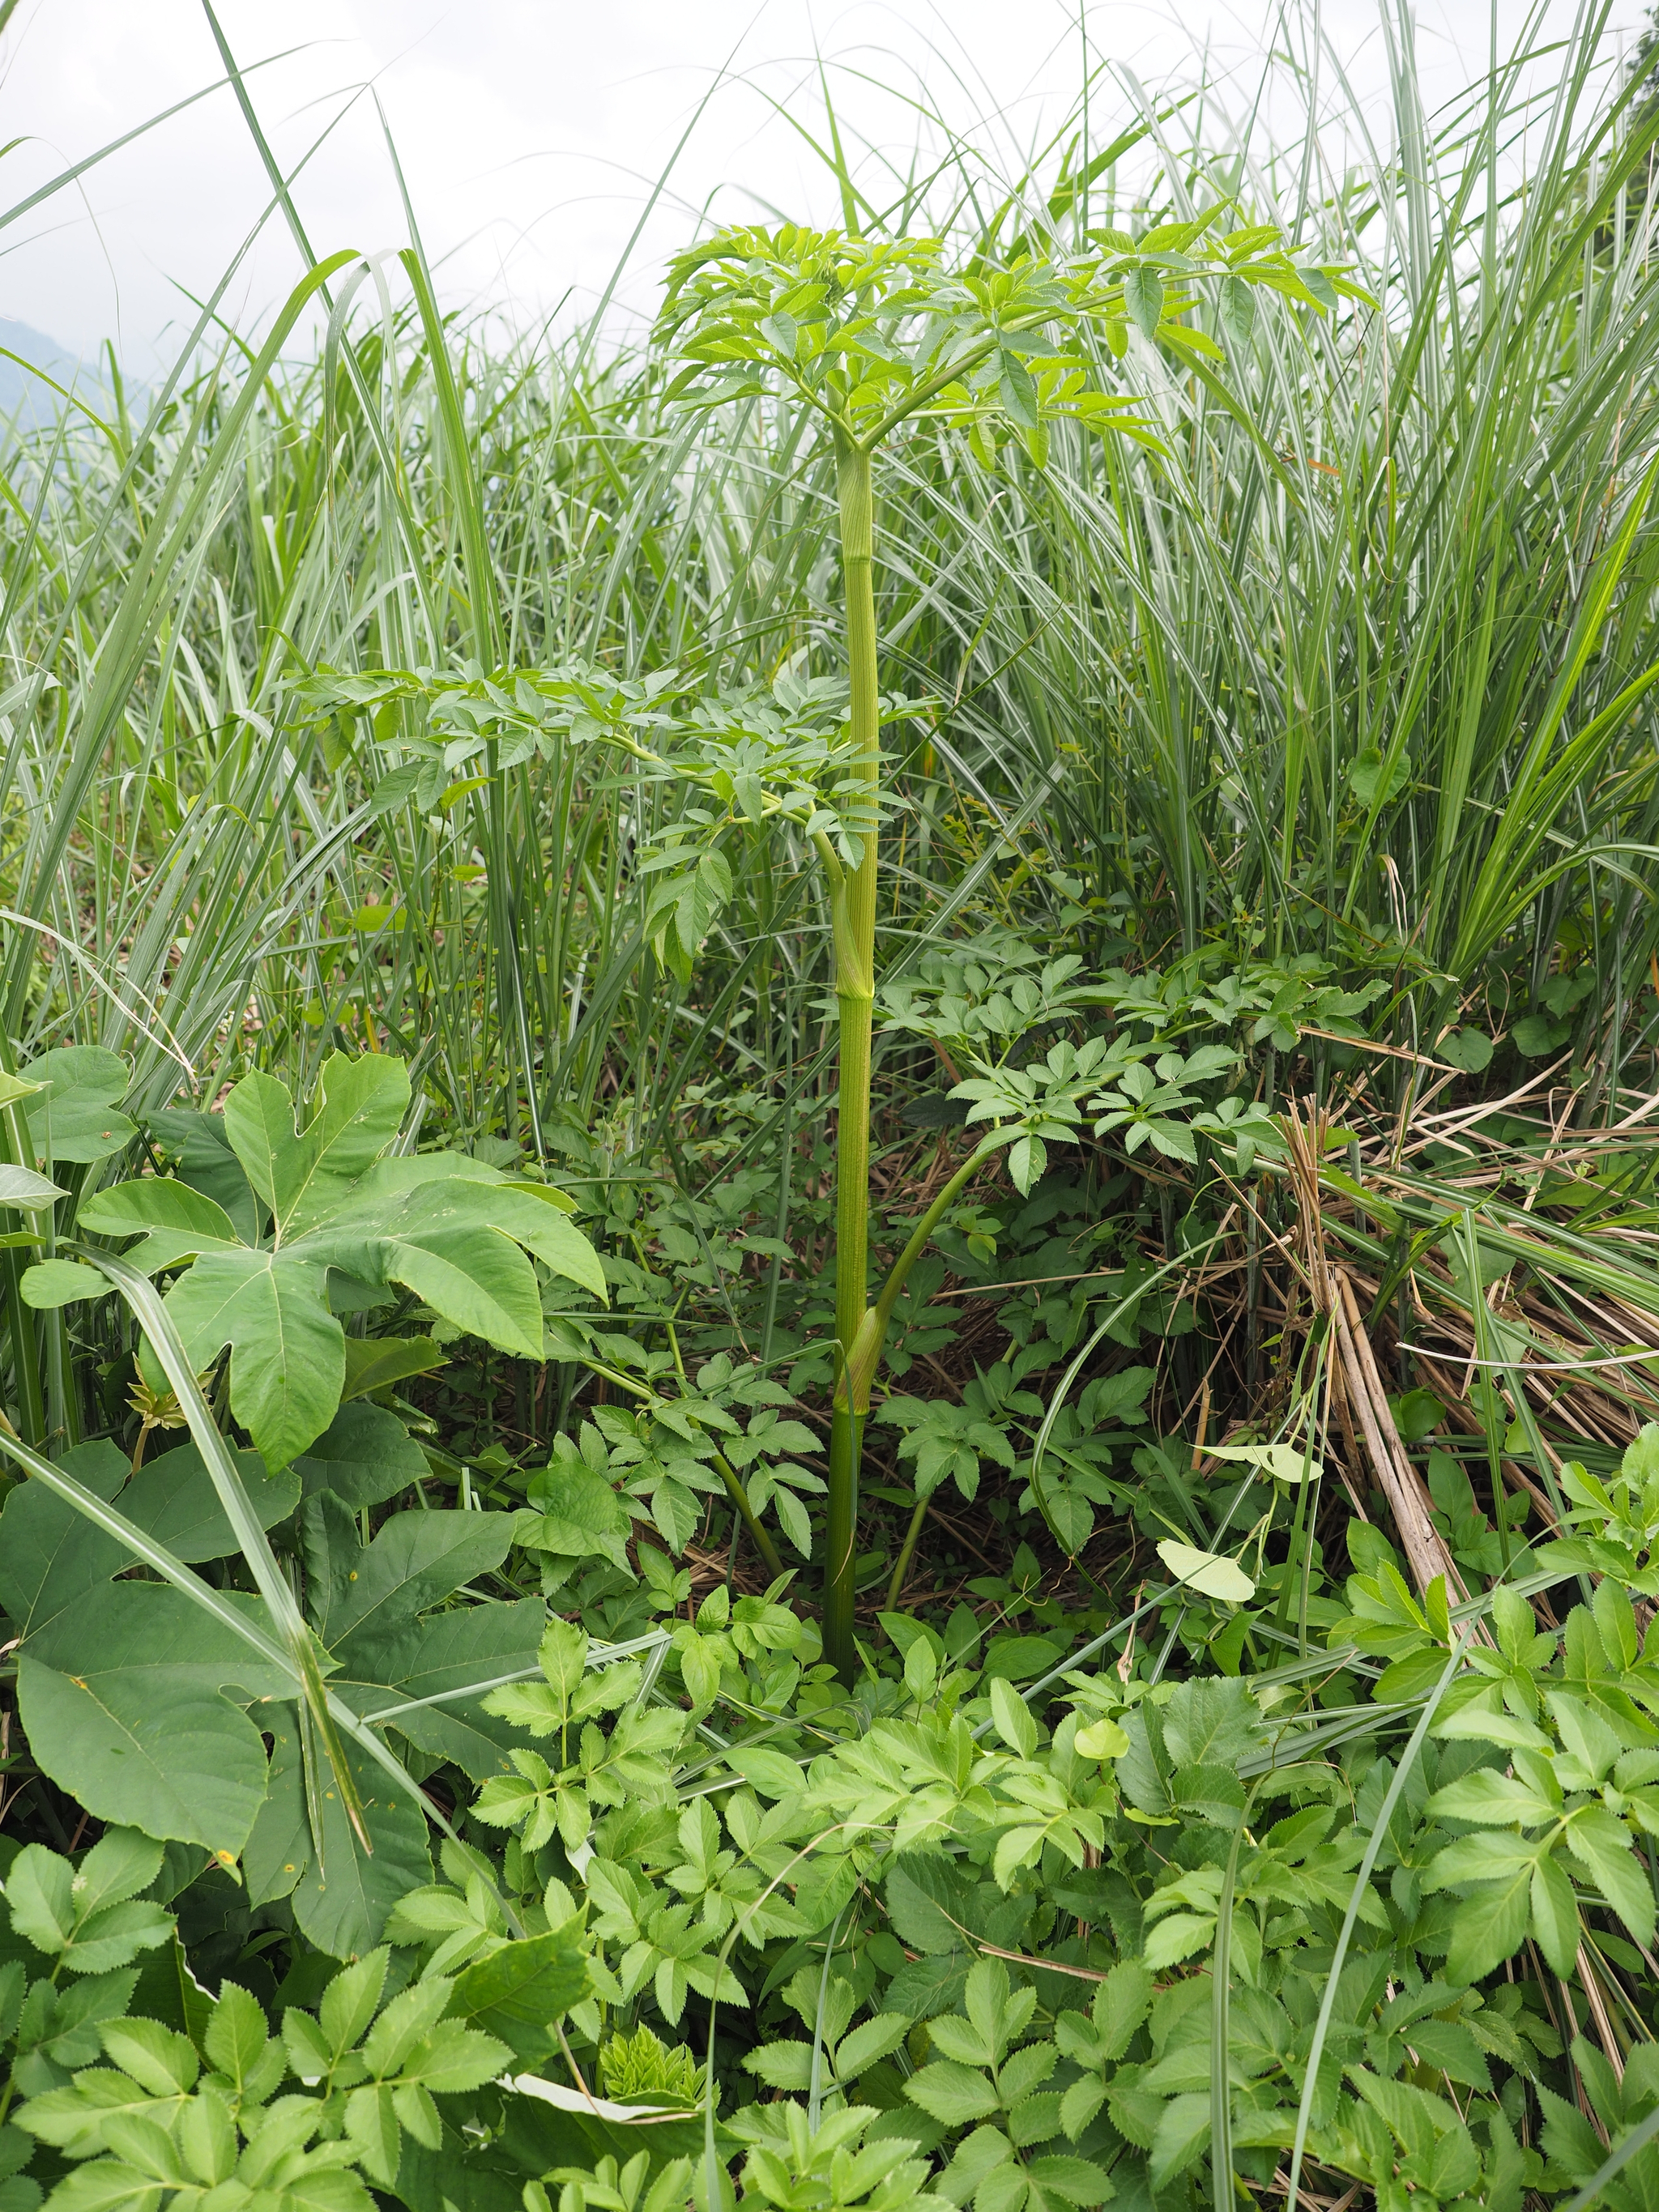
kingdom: Plantae
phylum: Tracheophyta
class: Magnoliopsida
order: Apiales
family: Apiaceae
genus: Angelica
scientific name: Angelica dahurica
